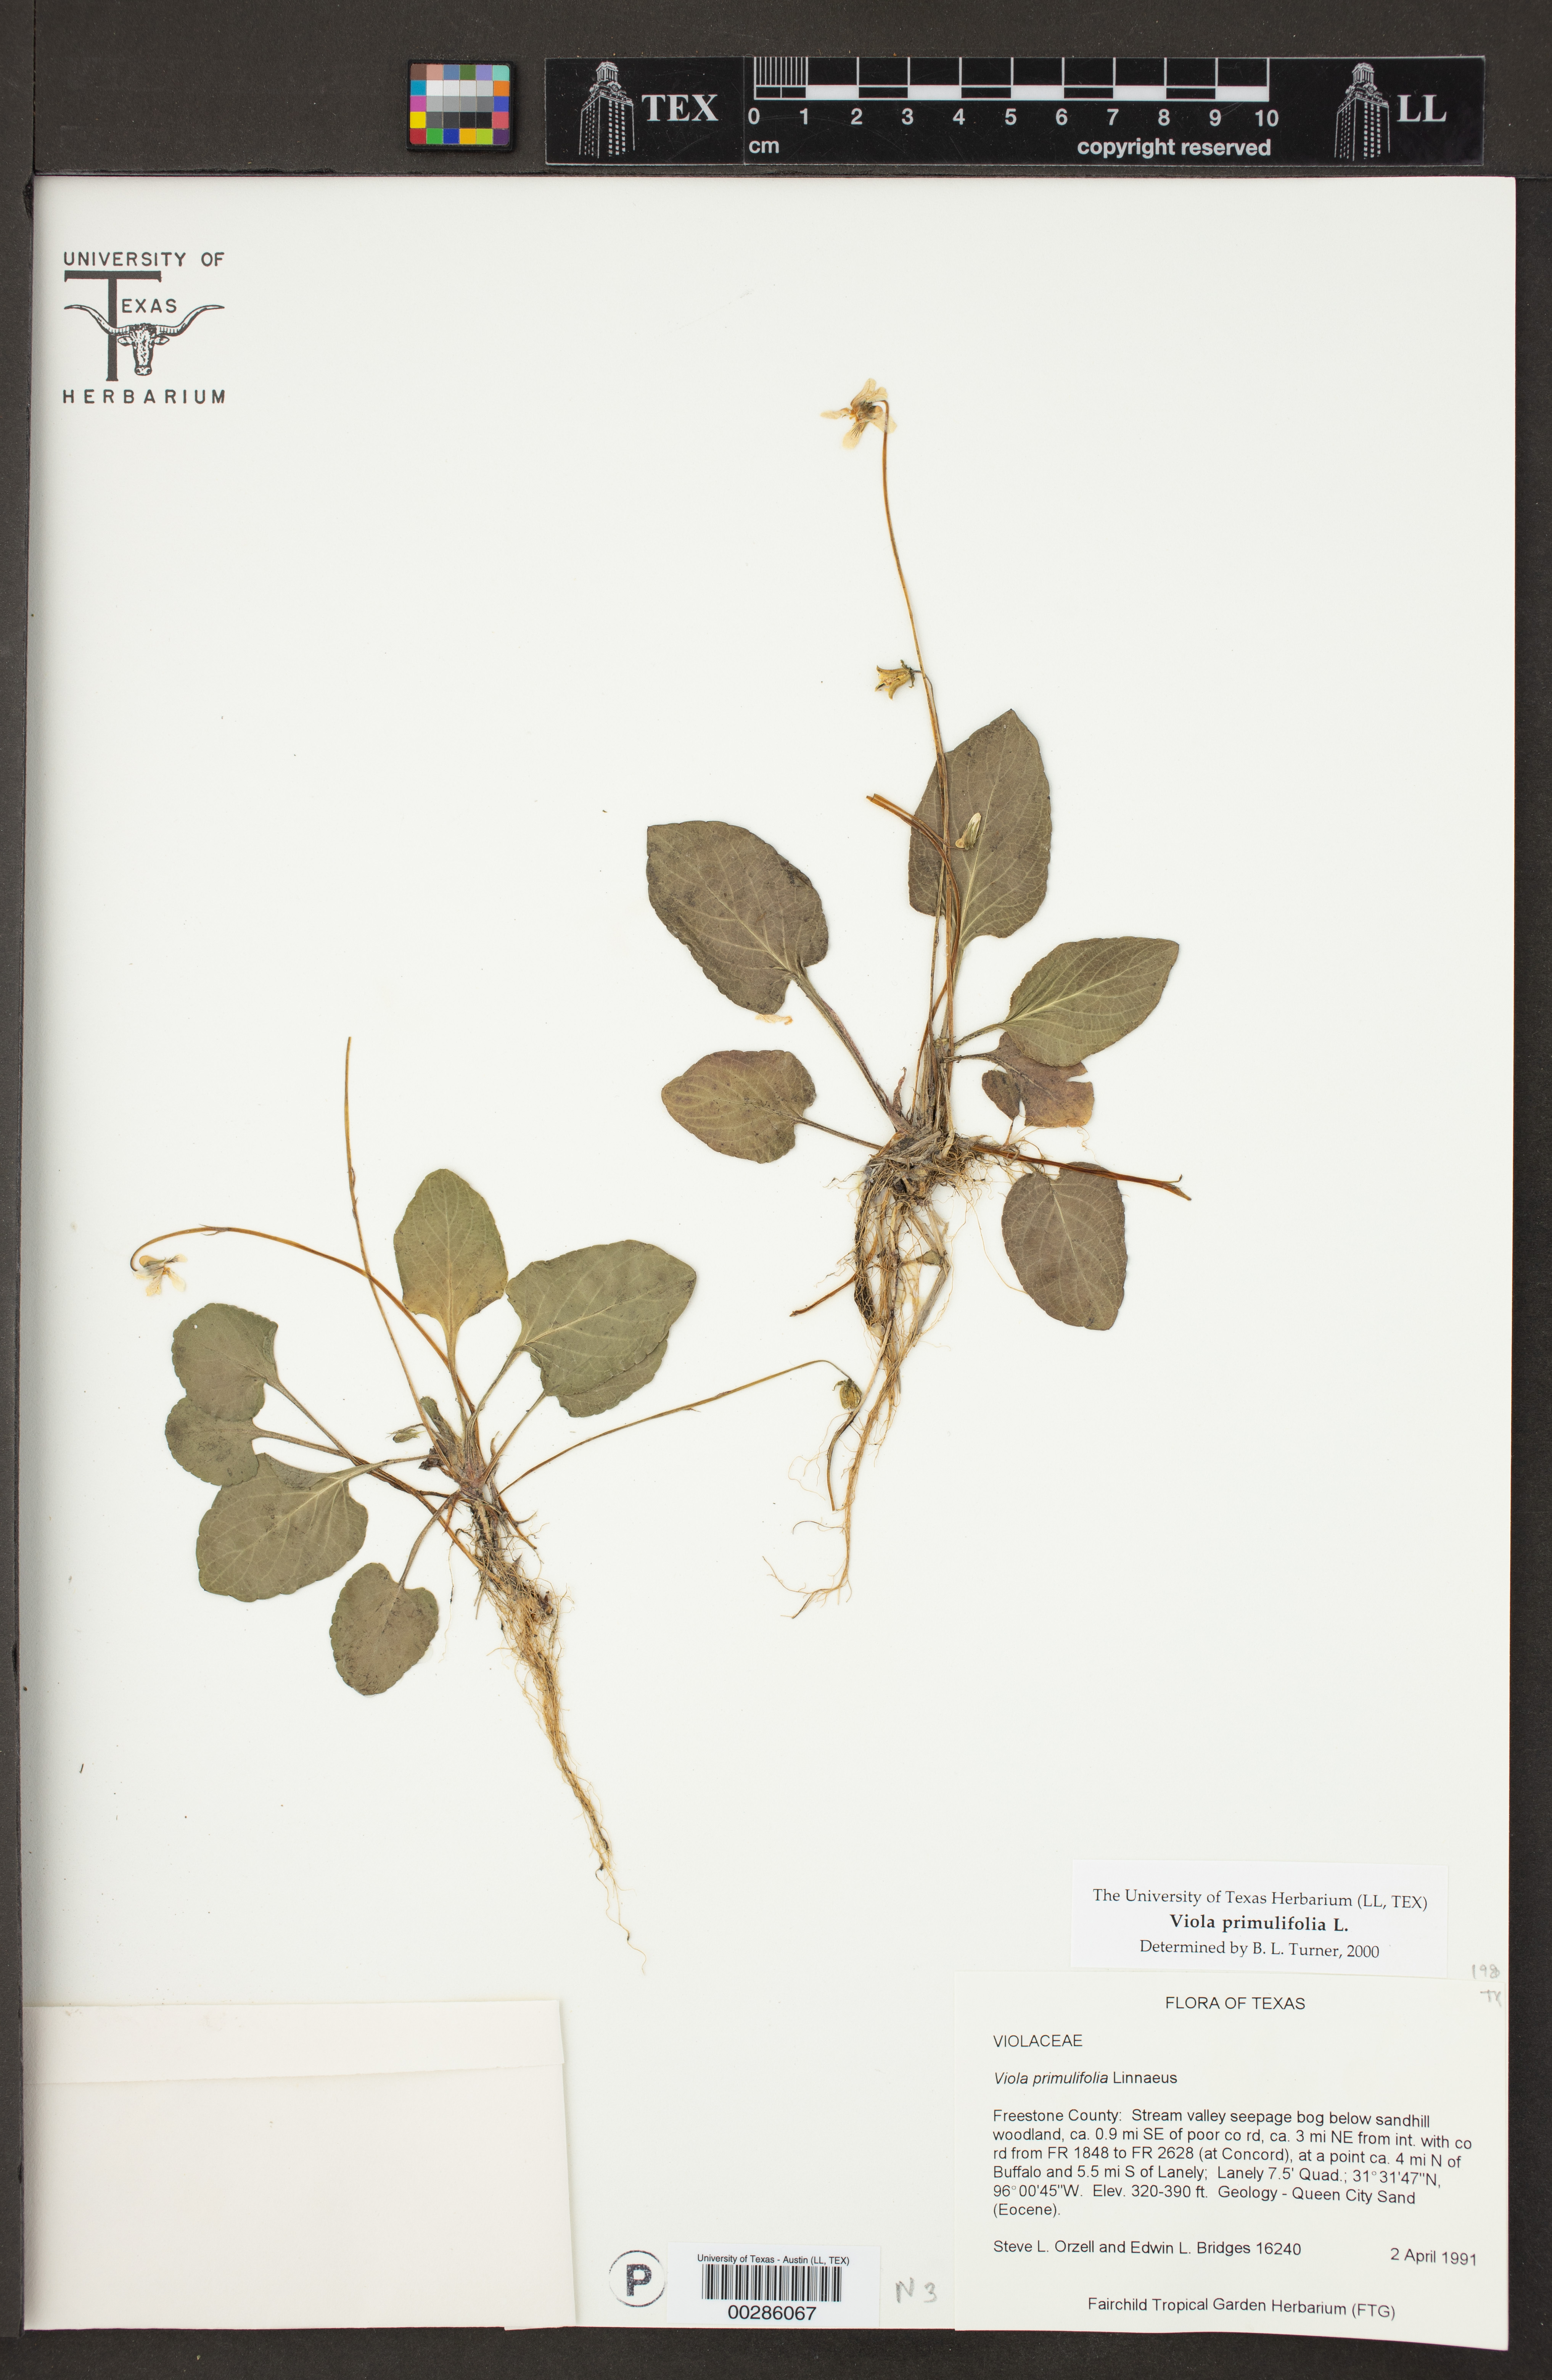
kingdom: Plantae
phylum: Tracheophyta
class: Magnoliopsida
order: Malpighiales
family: Violaceae
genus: Viola
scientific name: Viola primulifolia
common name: Primrose-leaf violet
